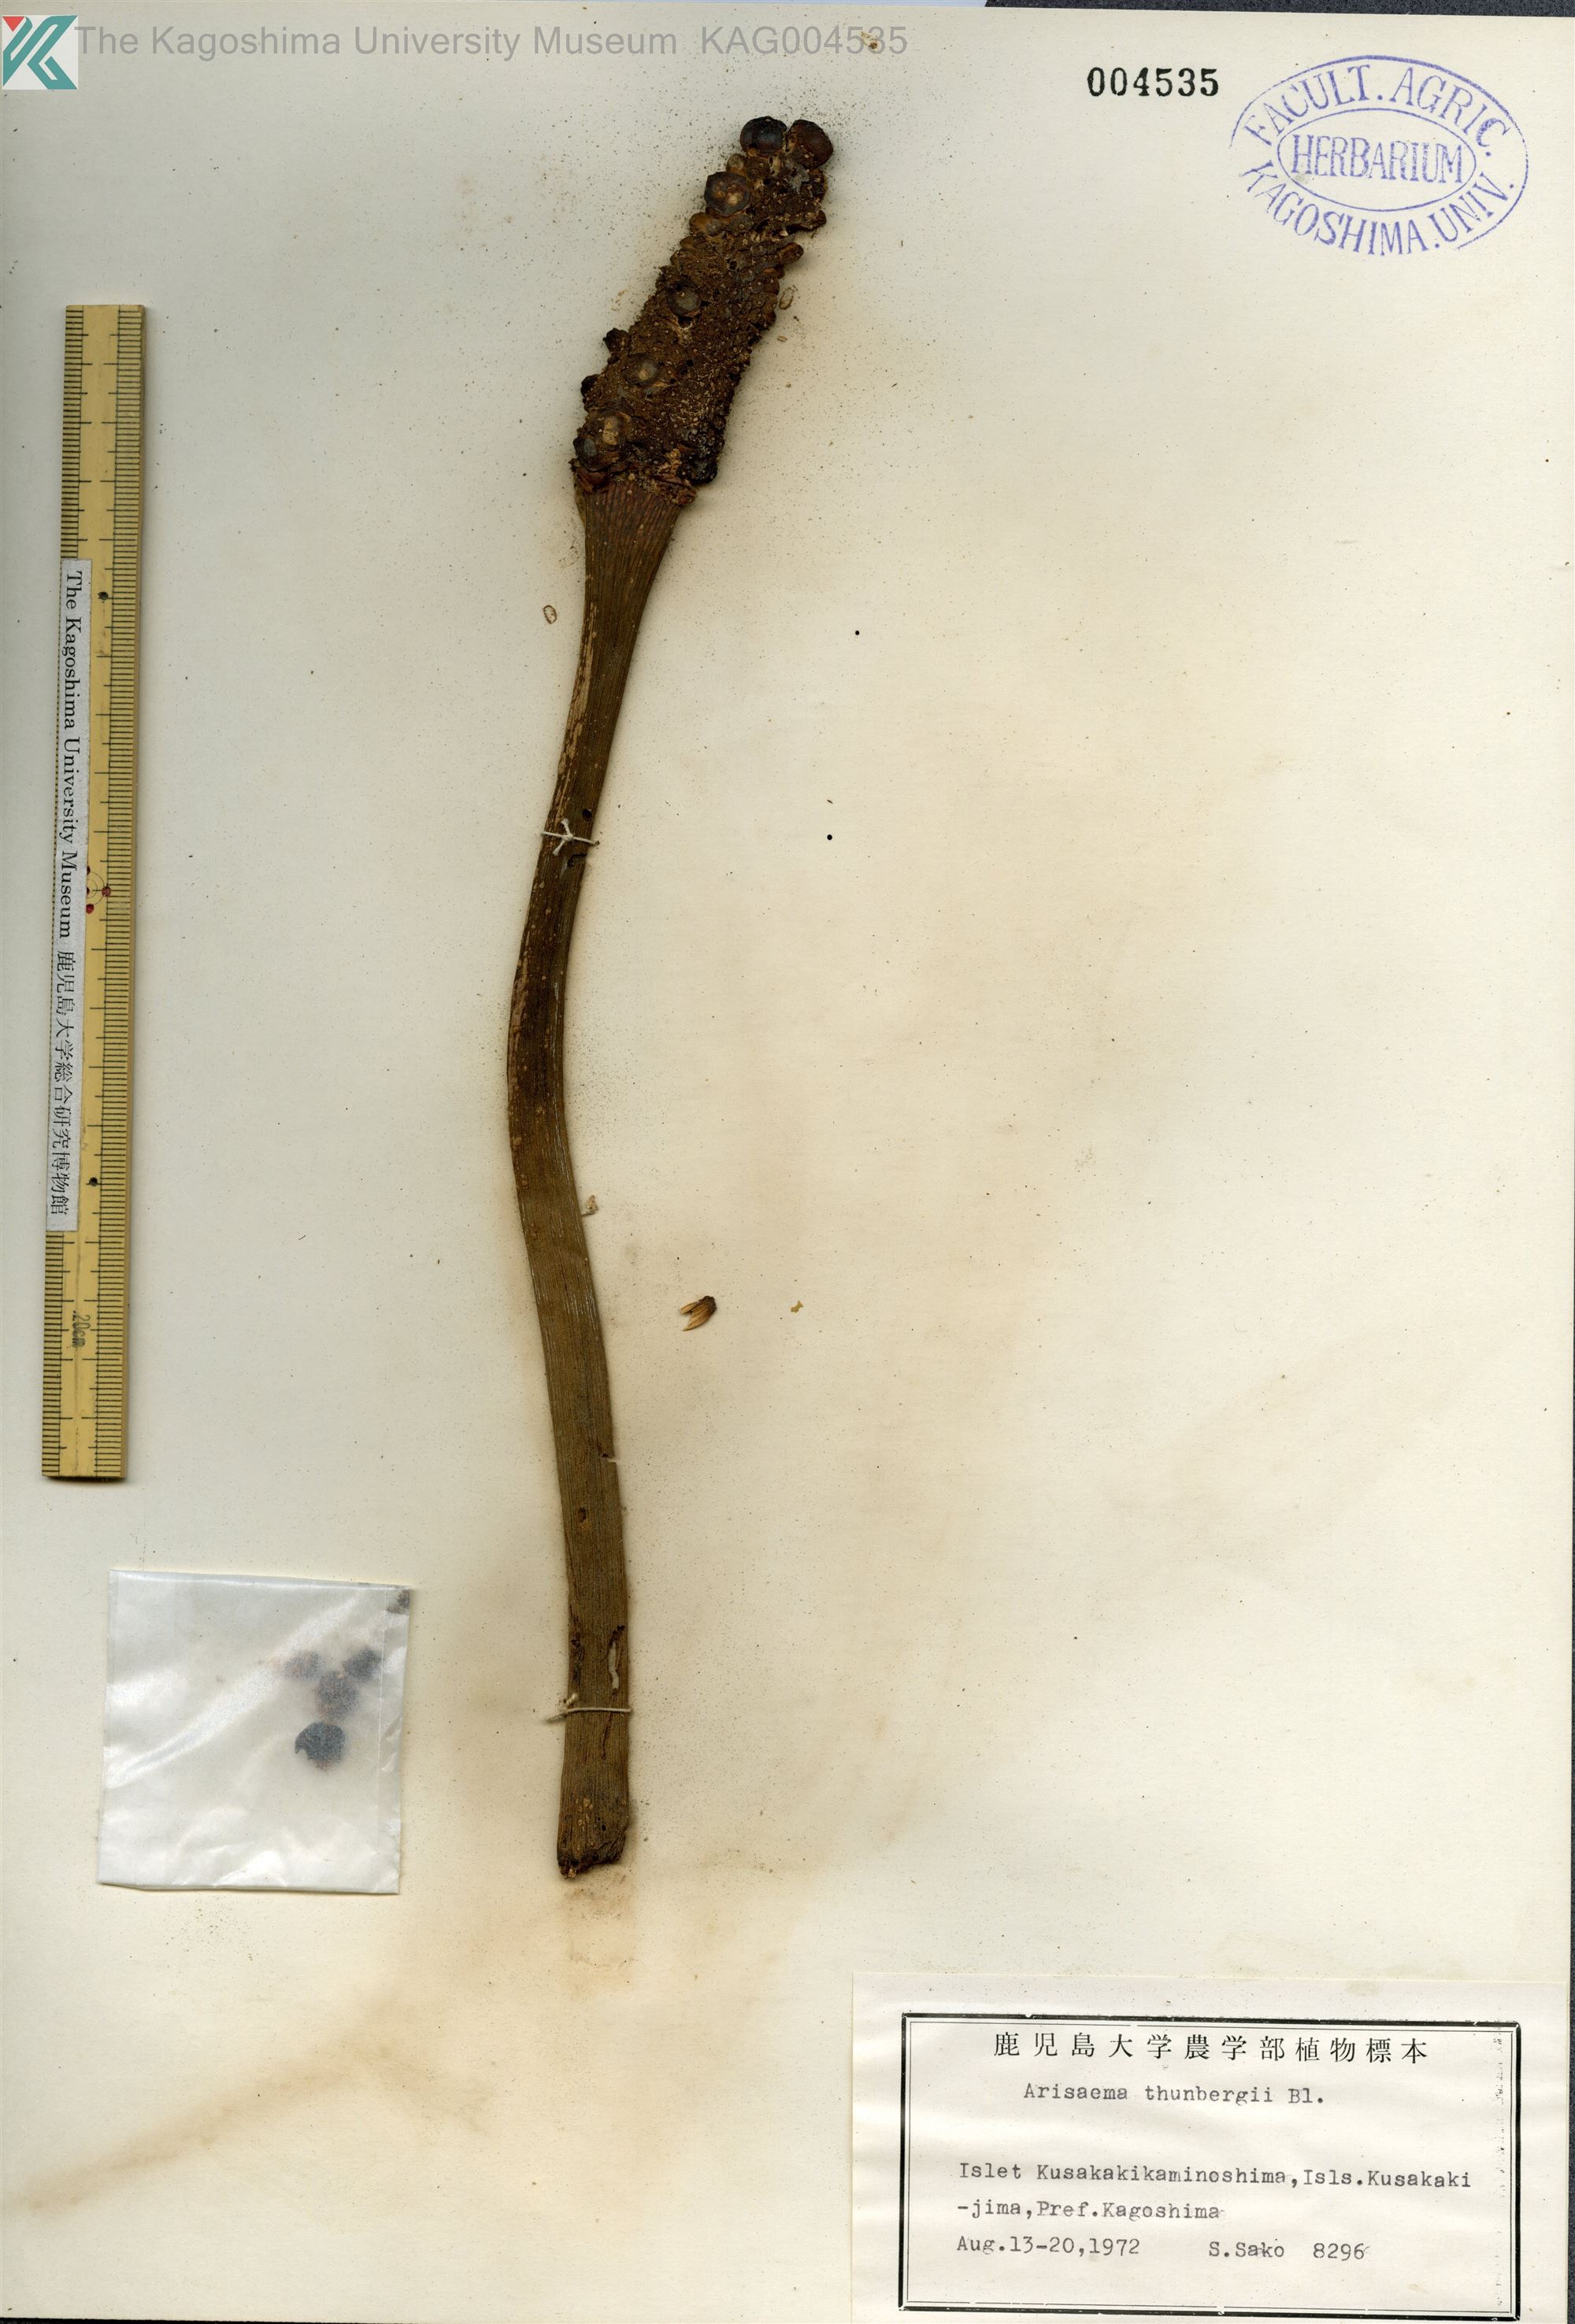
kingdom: Plantae
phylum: Tracheophyta
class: Liliopsida
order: Alismatales
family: Araceae
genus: Arisaema
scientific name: Arisaema thunbergii
